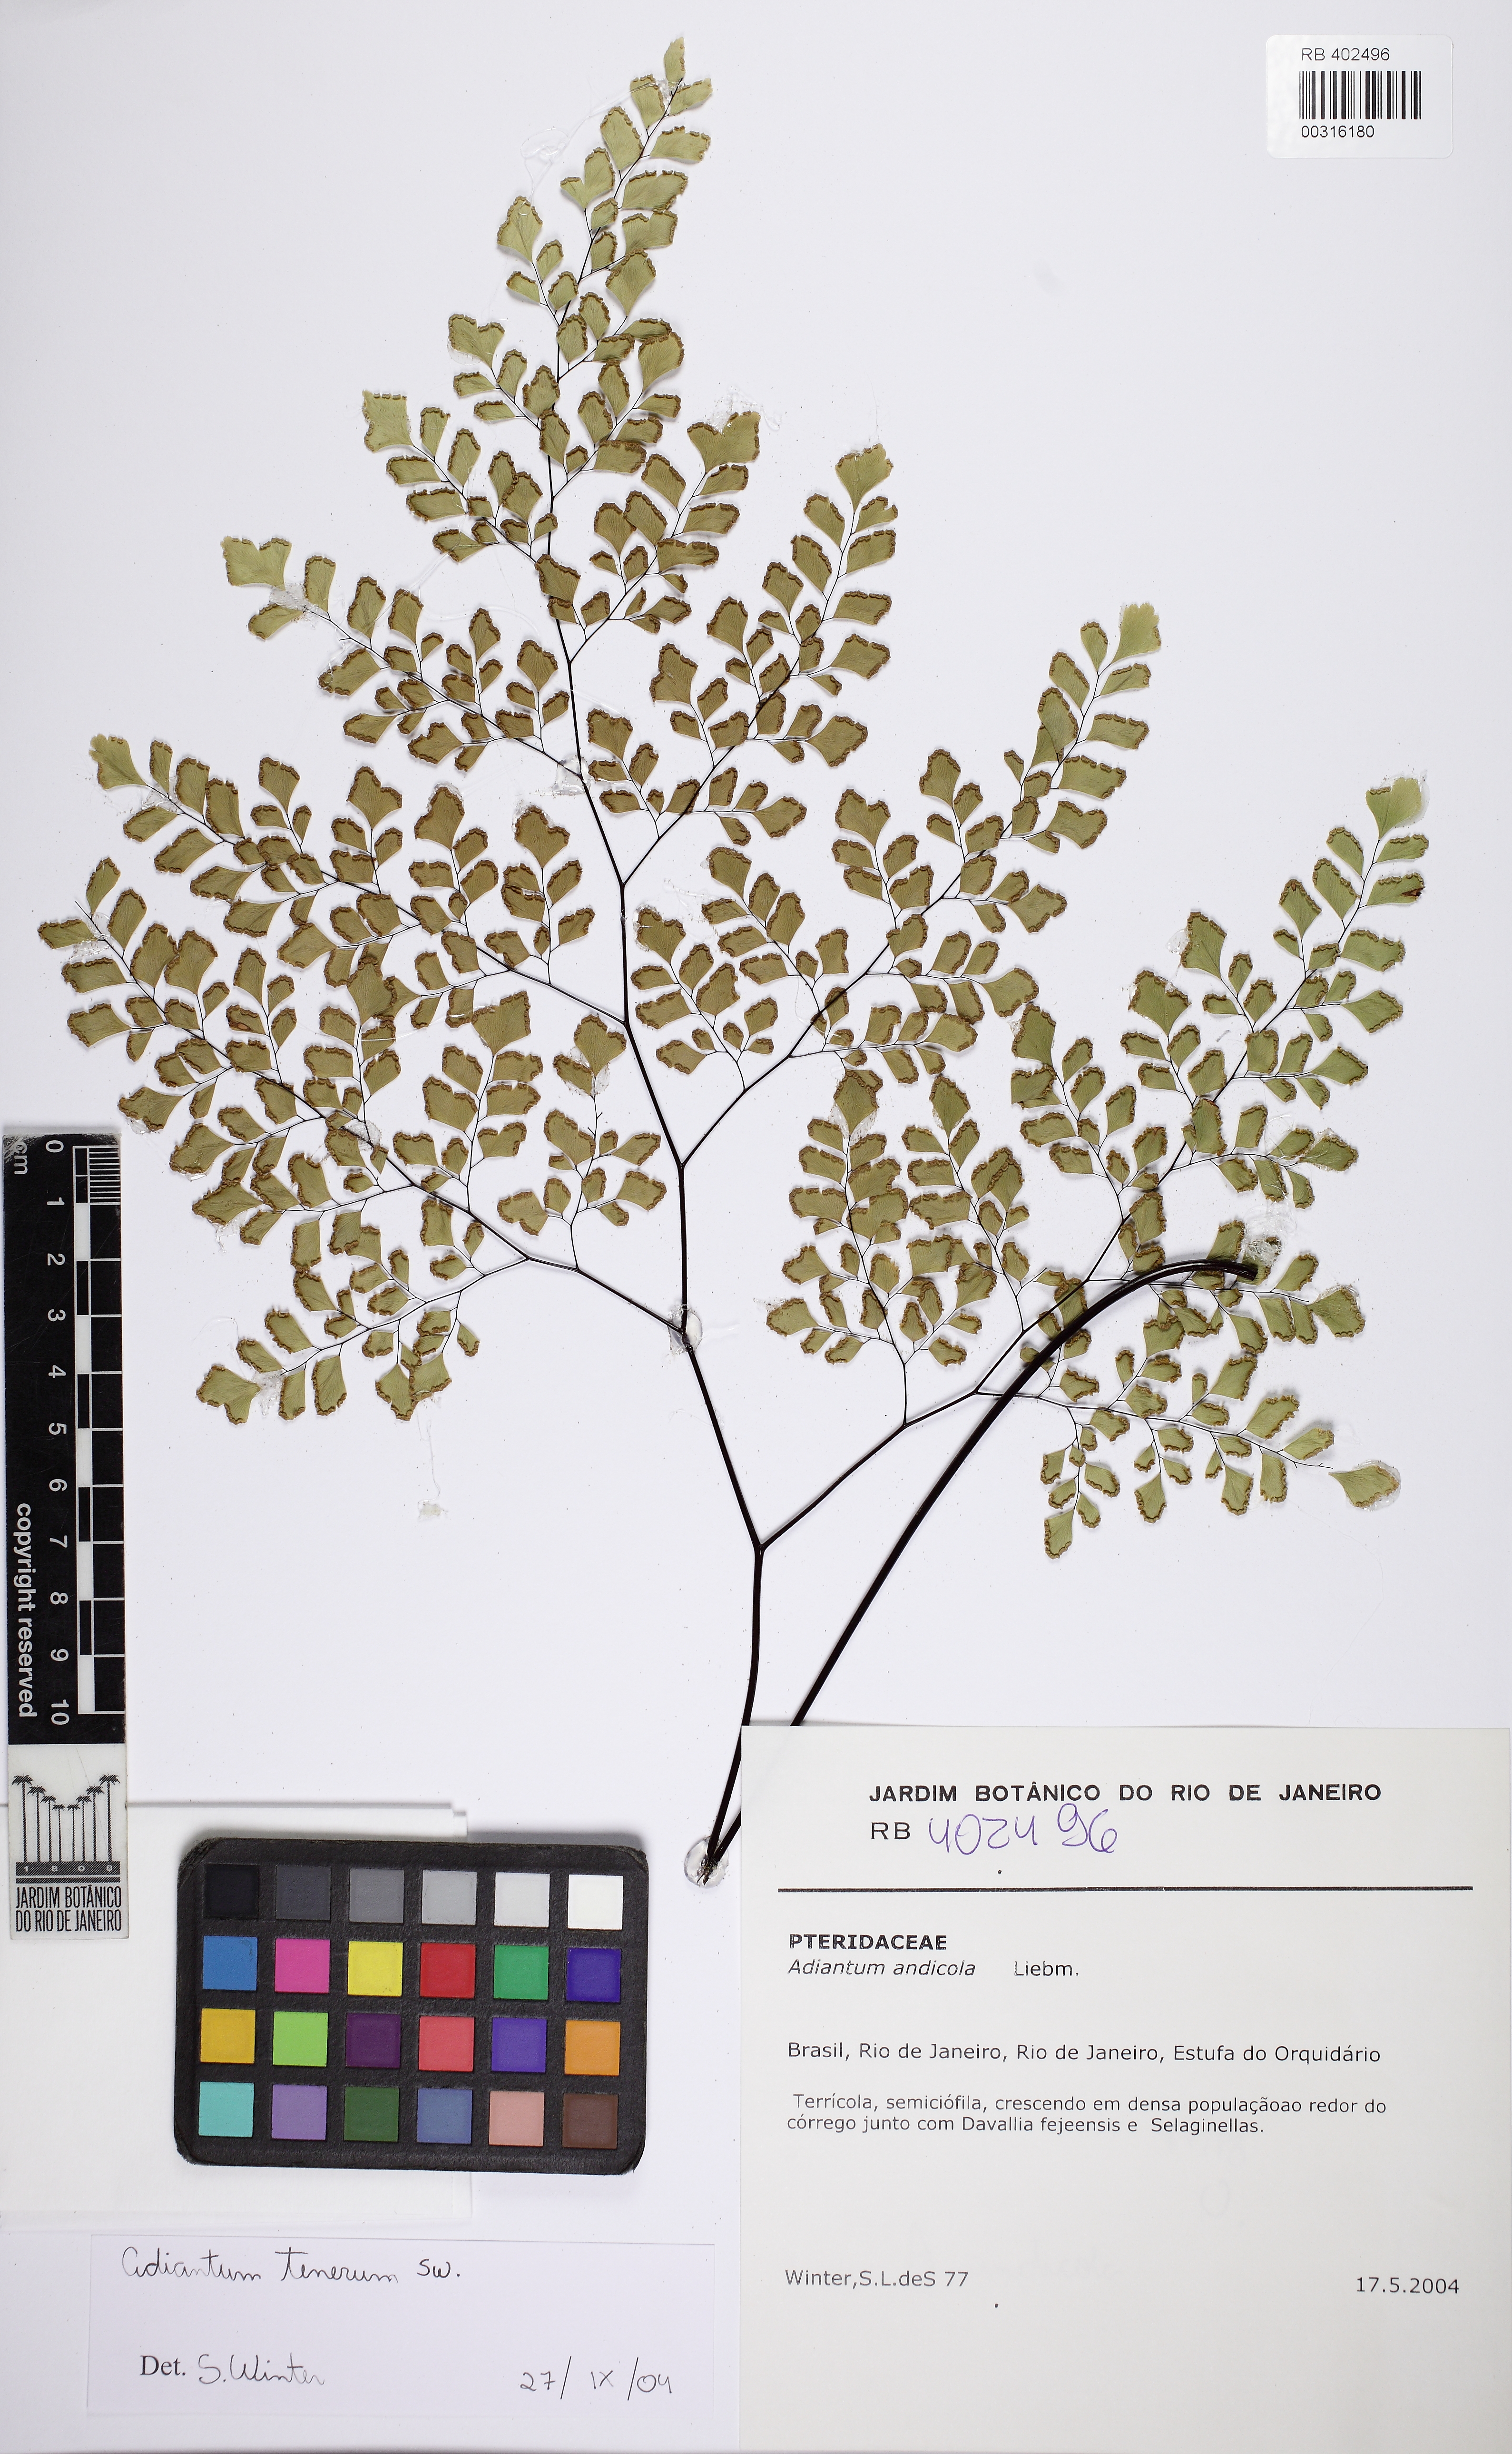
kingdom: Plantae
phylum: Tracheophyta
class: Polypodiopsida
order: Polypodiales
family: Pteridaceae
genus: Adiantum
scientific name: Adiantum tenerum
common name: Fan maidenhair
